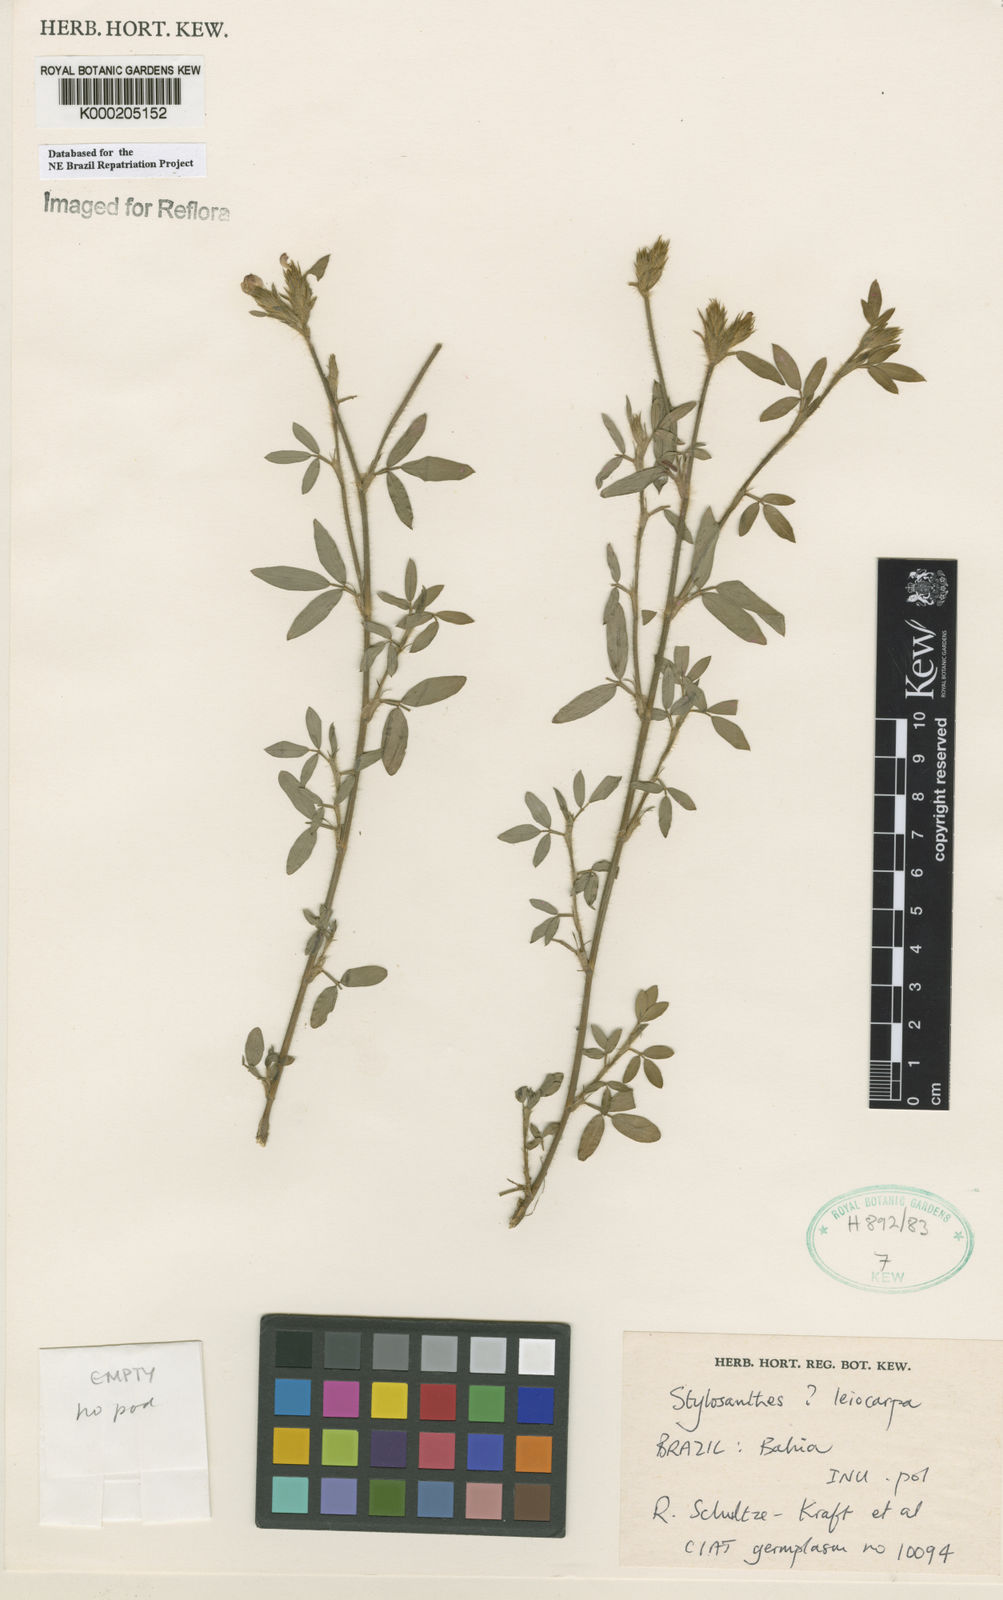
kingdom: Plantae
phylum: Tracheophyta
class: Magnoliopsida
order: Fabales
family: Fabaceae
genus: Stylosanthes
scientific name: Stylosanthes leiocarpa
